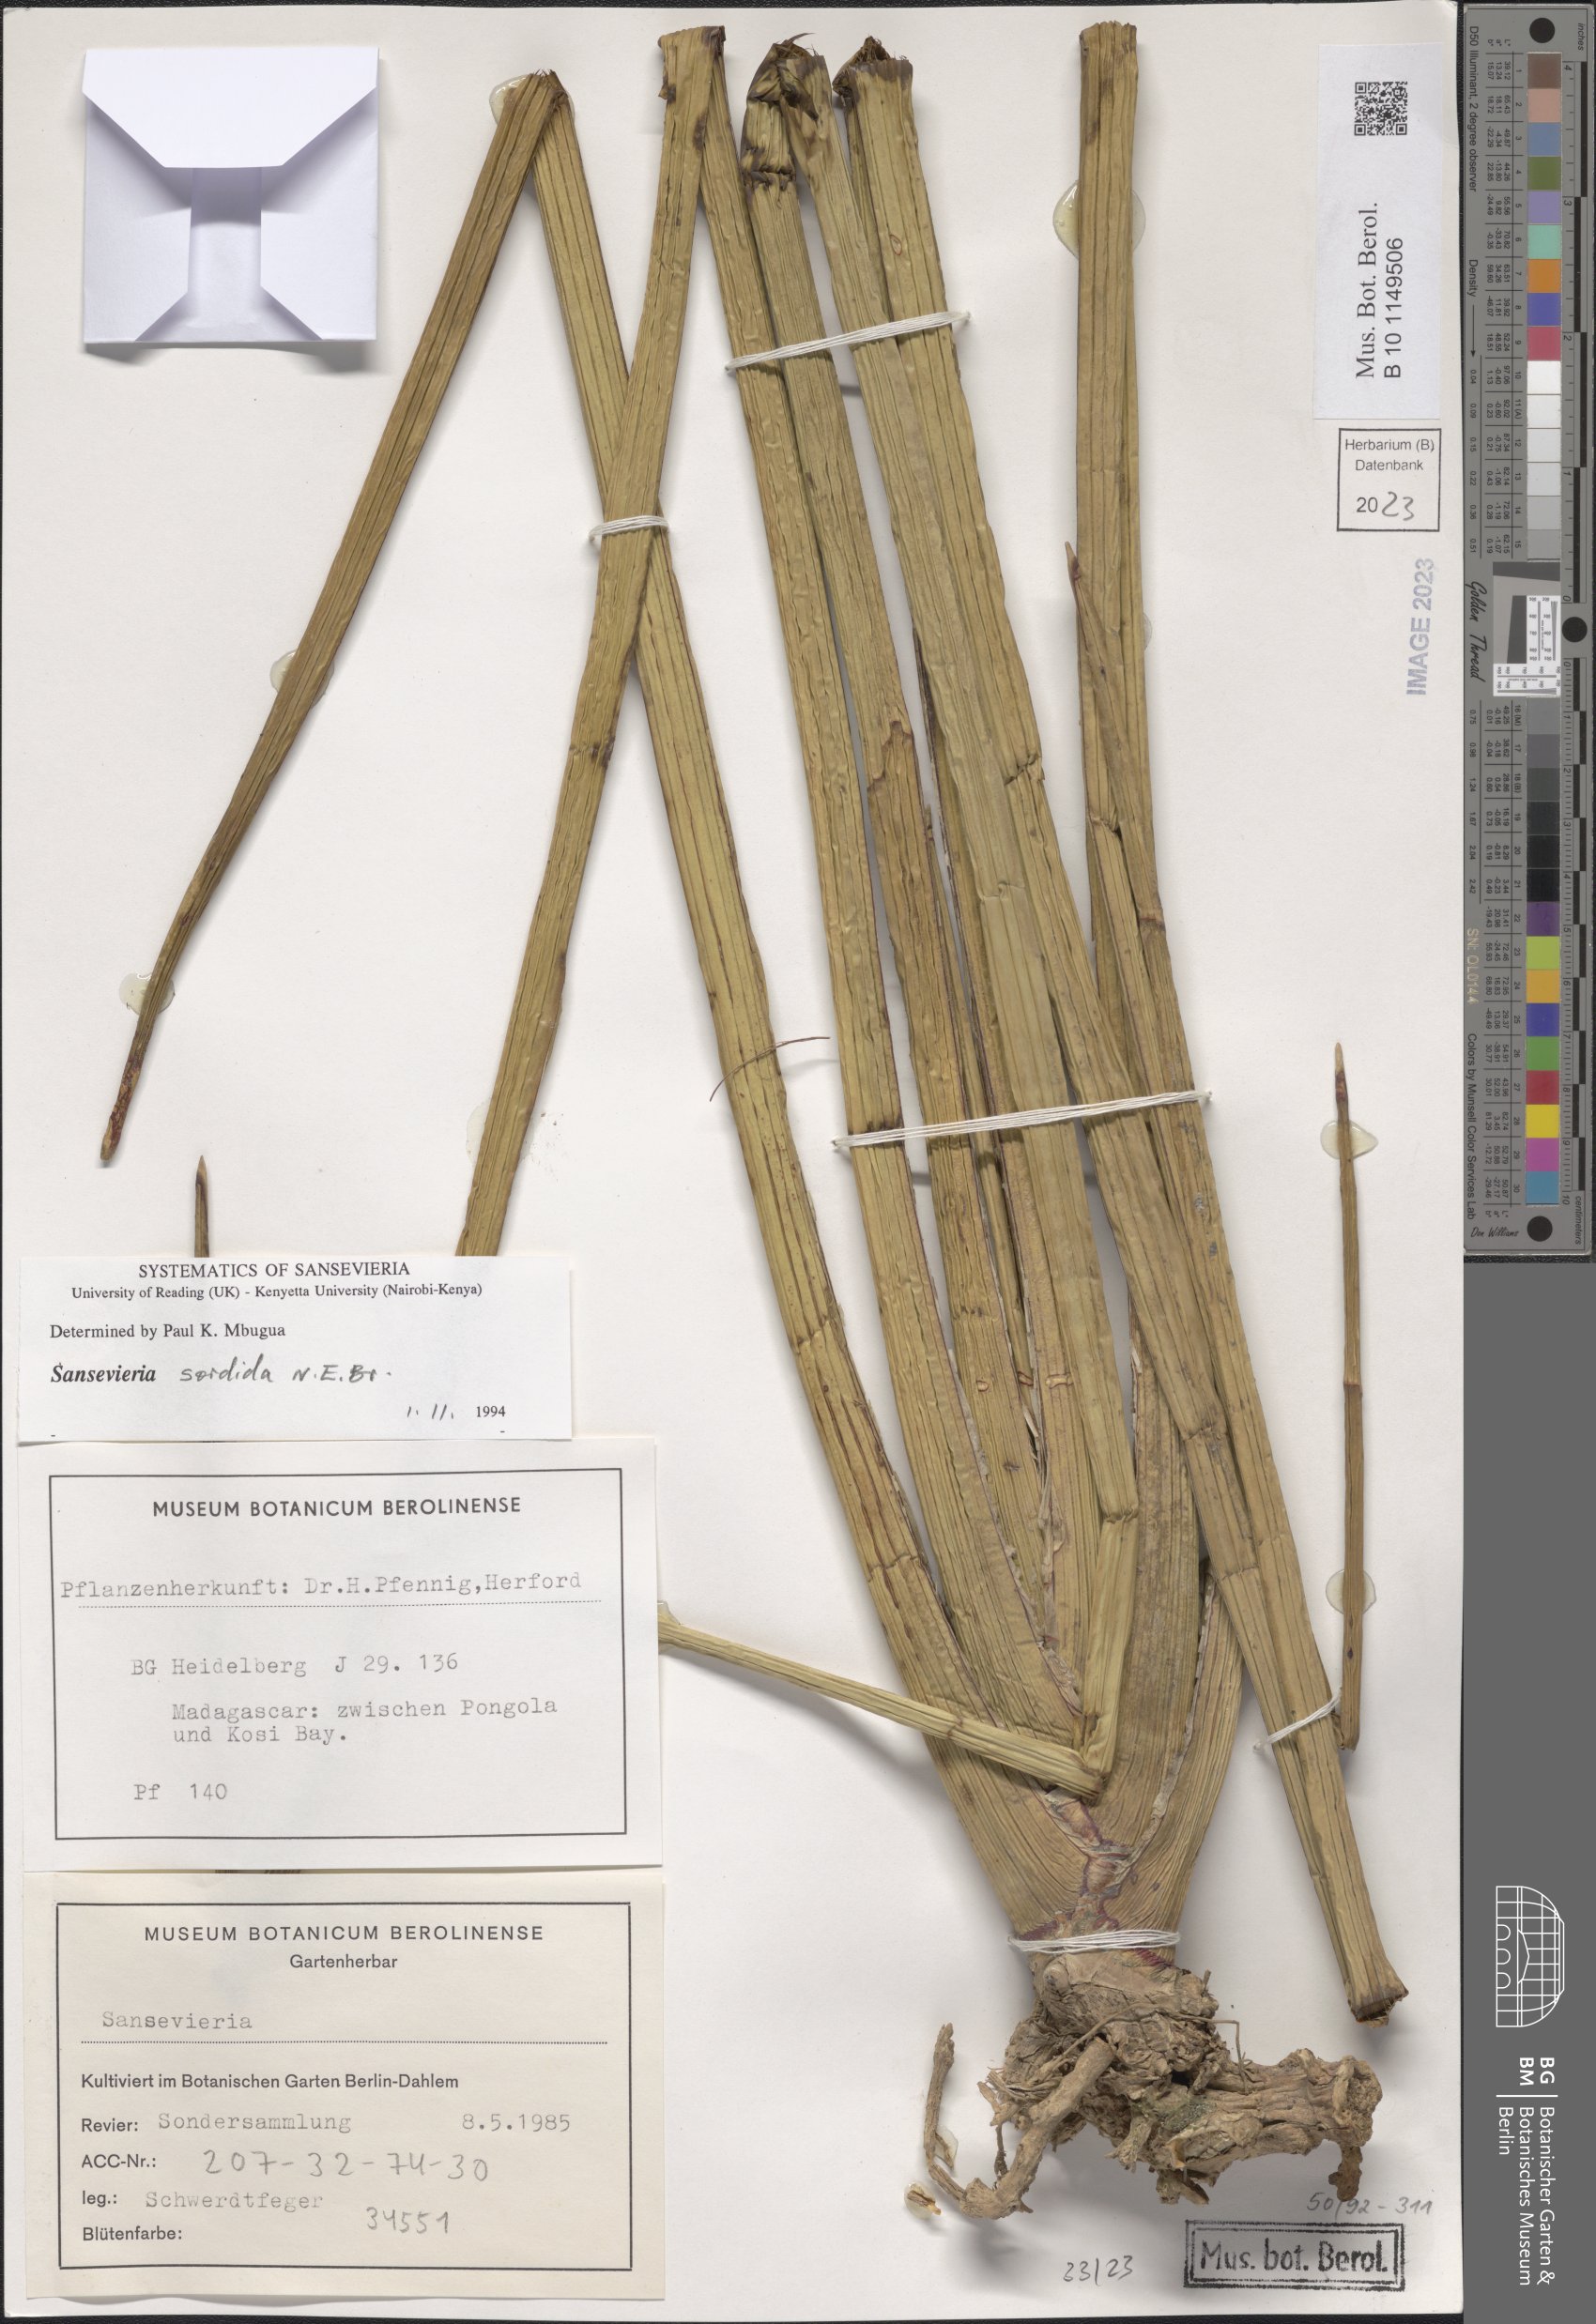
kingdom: Plantae
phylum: Tracheophyta
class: Liliopsida
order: Asparagales
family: Asparagaceae
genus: Dracaena
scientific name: Dracaena varians
